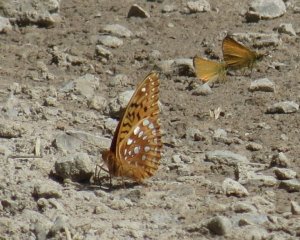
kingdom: Animalia
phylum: Arthropoda
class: Insecta
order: Lepidoptera
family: Nymphalidae
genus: Speyeria
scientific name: Speyeria cybele
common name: Great Spangled Fritillary
